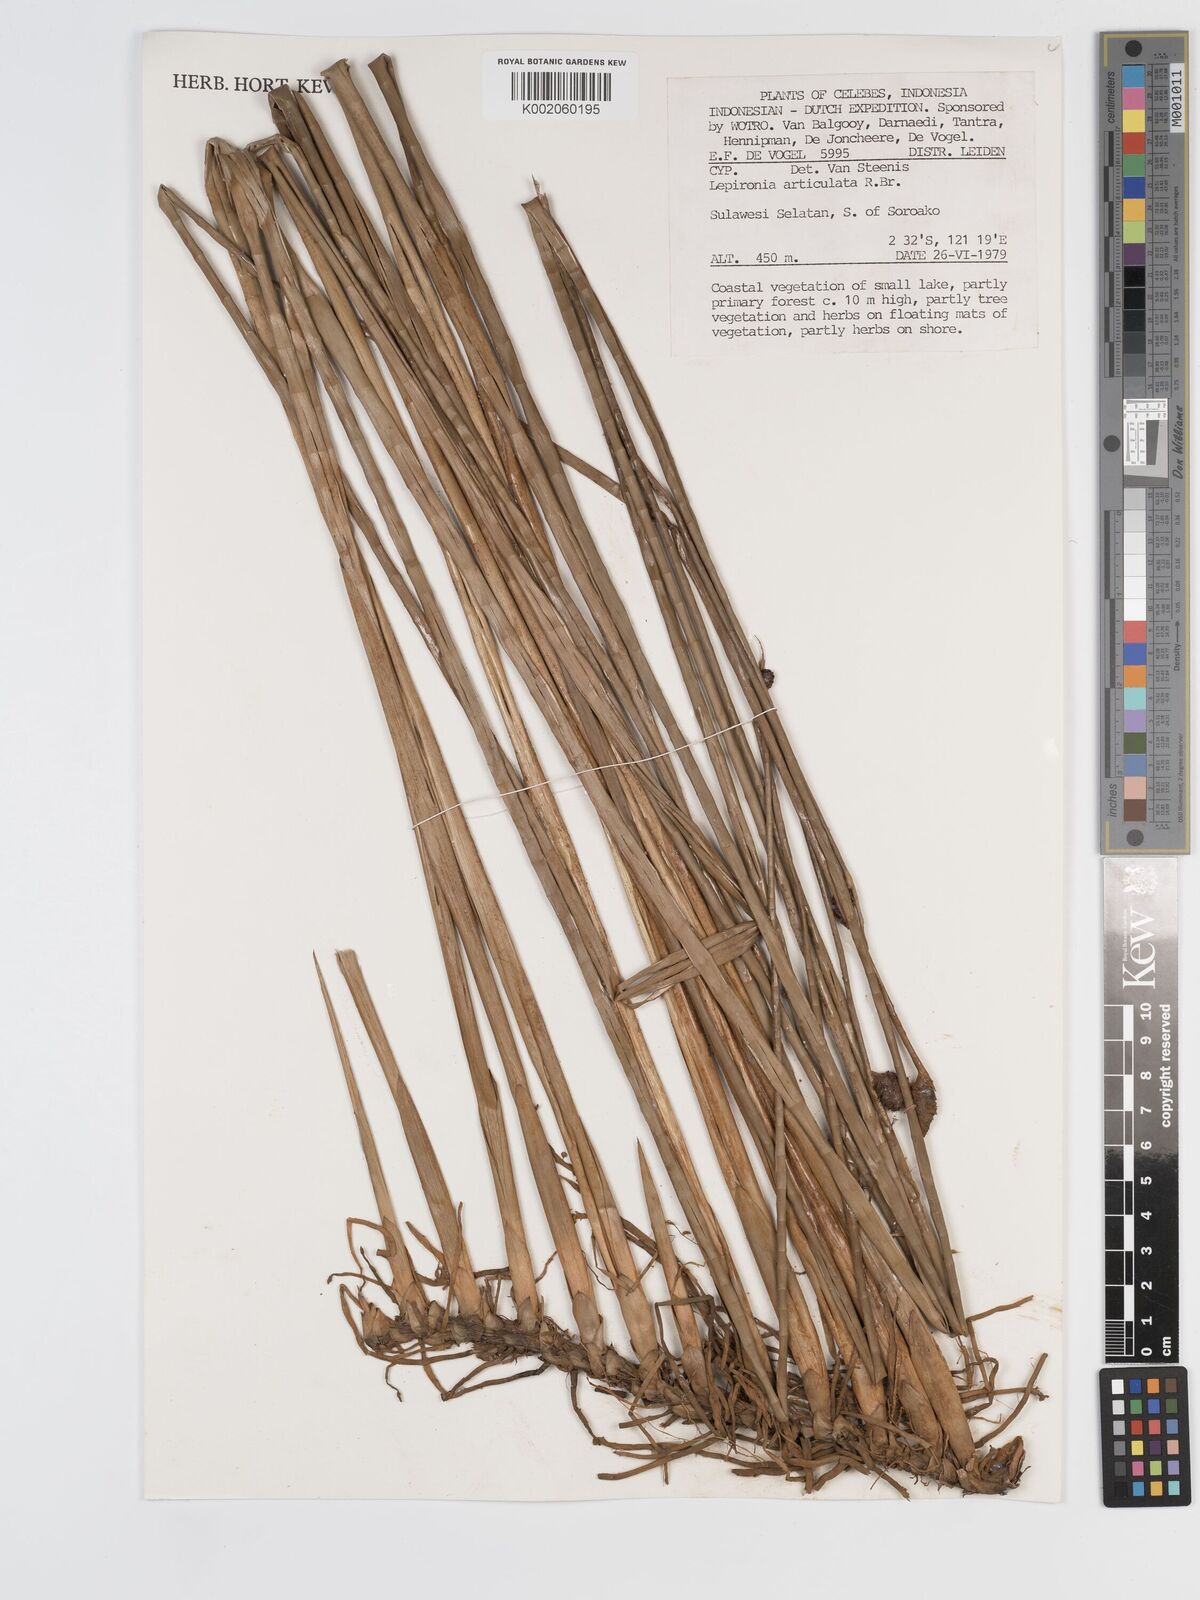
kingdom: Plantae
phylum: Tracheophyta
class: Liliopsida
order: Poales
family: Cyperaceae
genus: Lepironia
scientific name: Lepironia articulata
